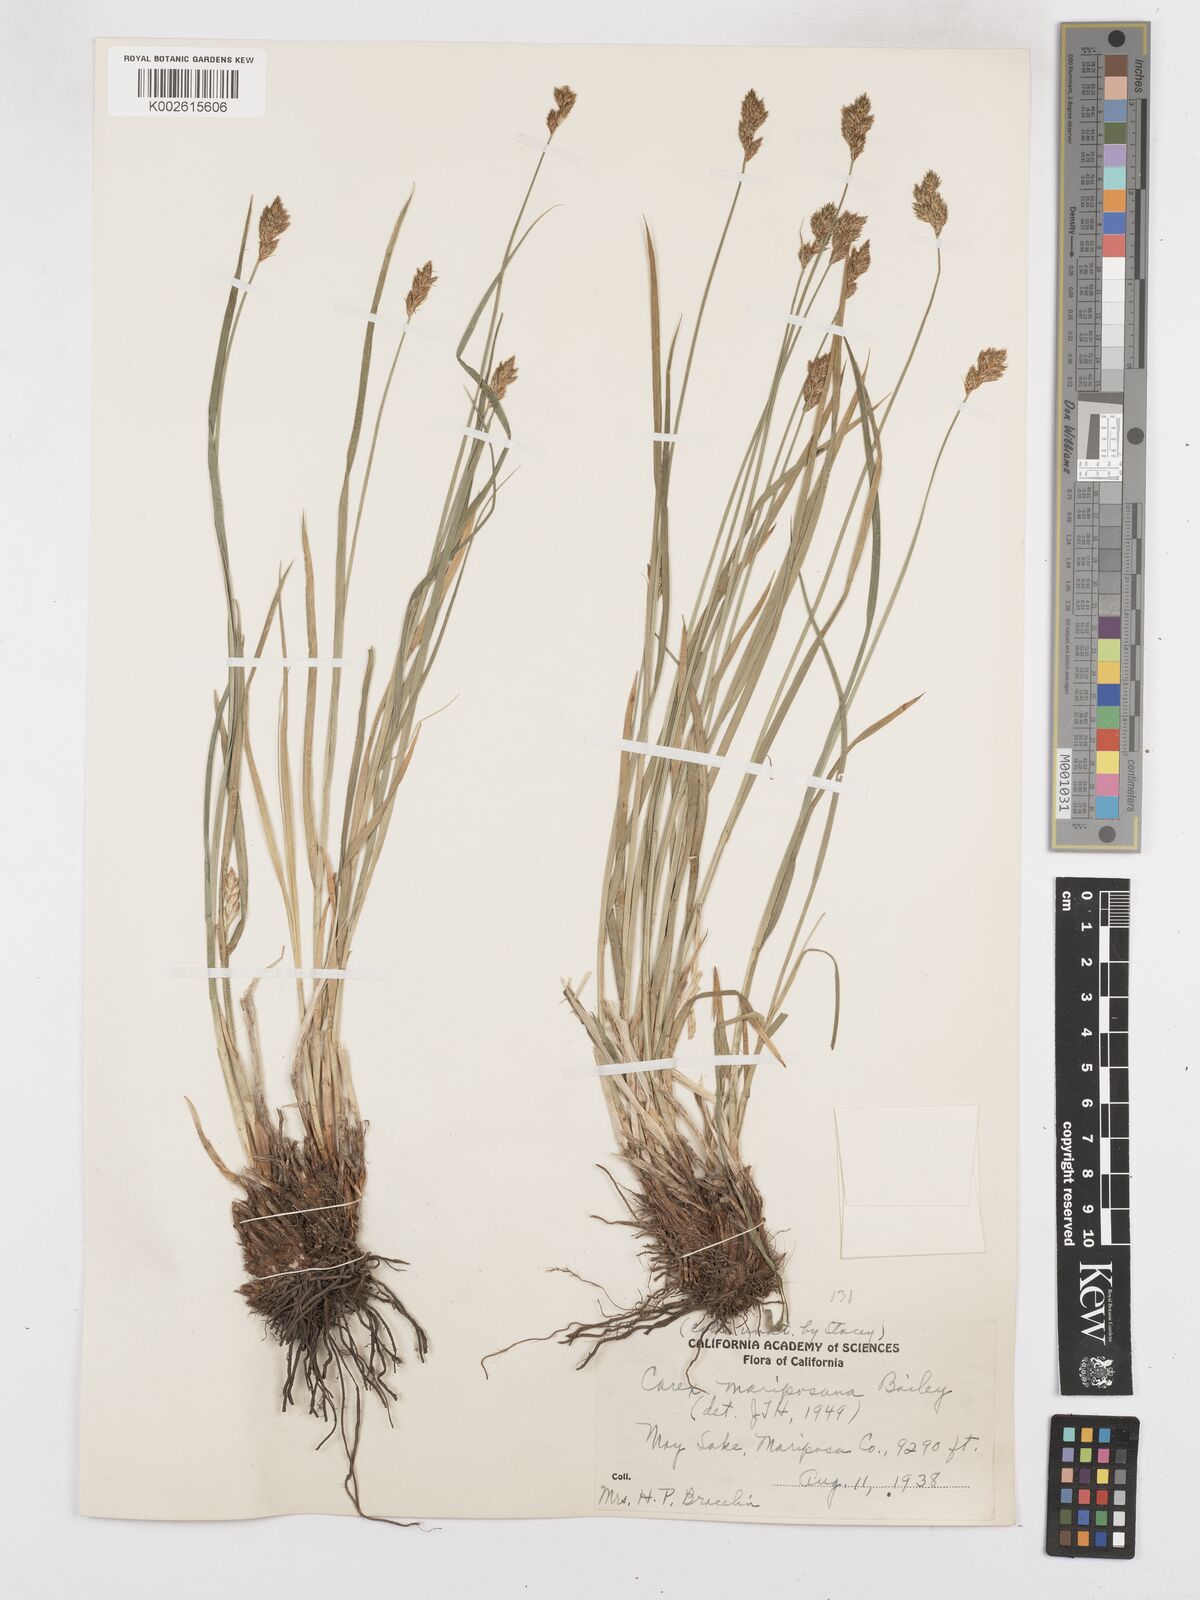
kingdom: Plantae
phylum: Tracheophyta
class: Liliopsida
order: Poales
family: Cyperaceae
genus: Carex
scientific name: Carex mariposana
